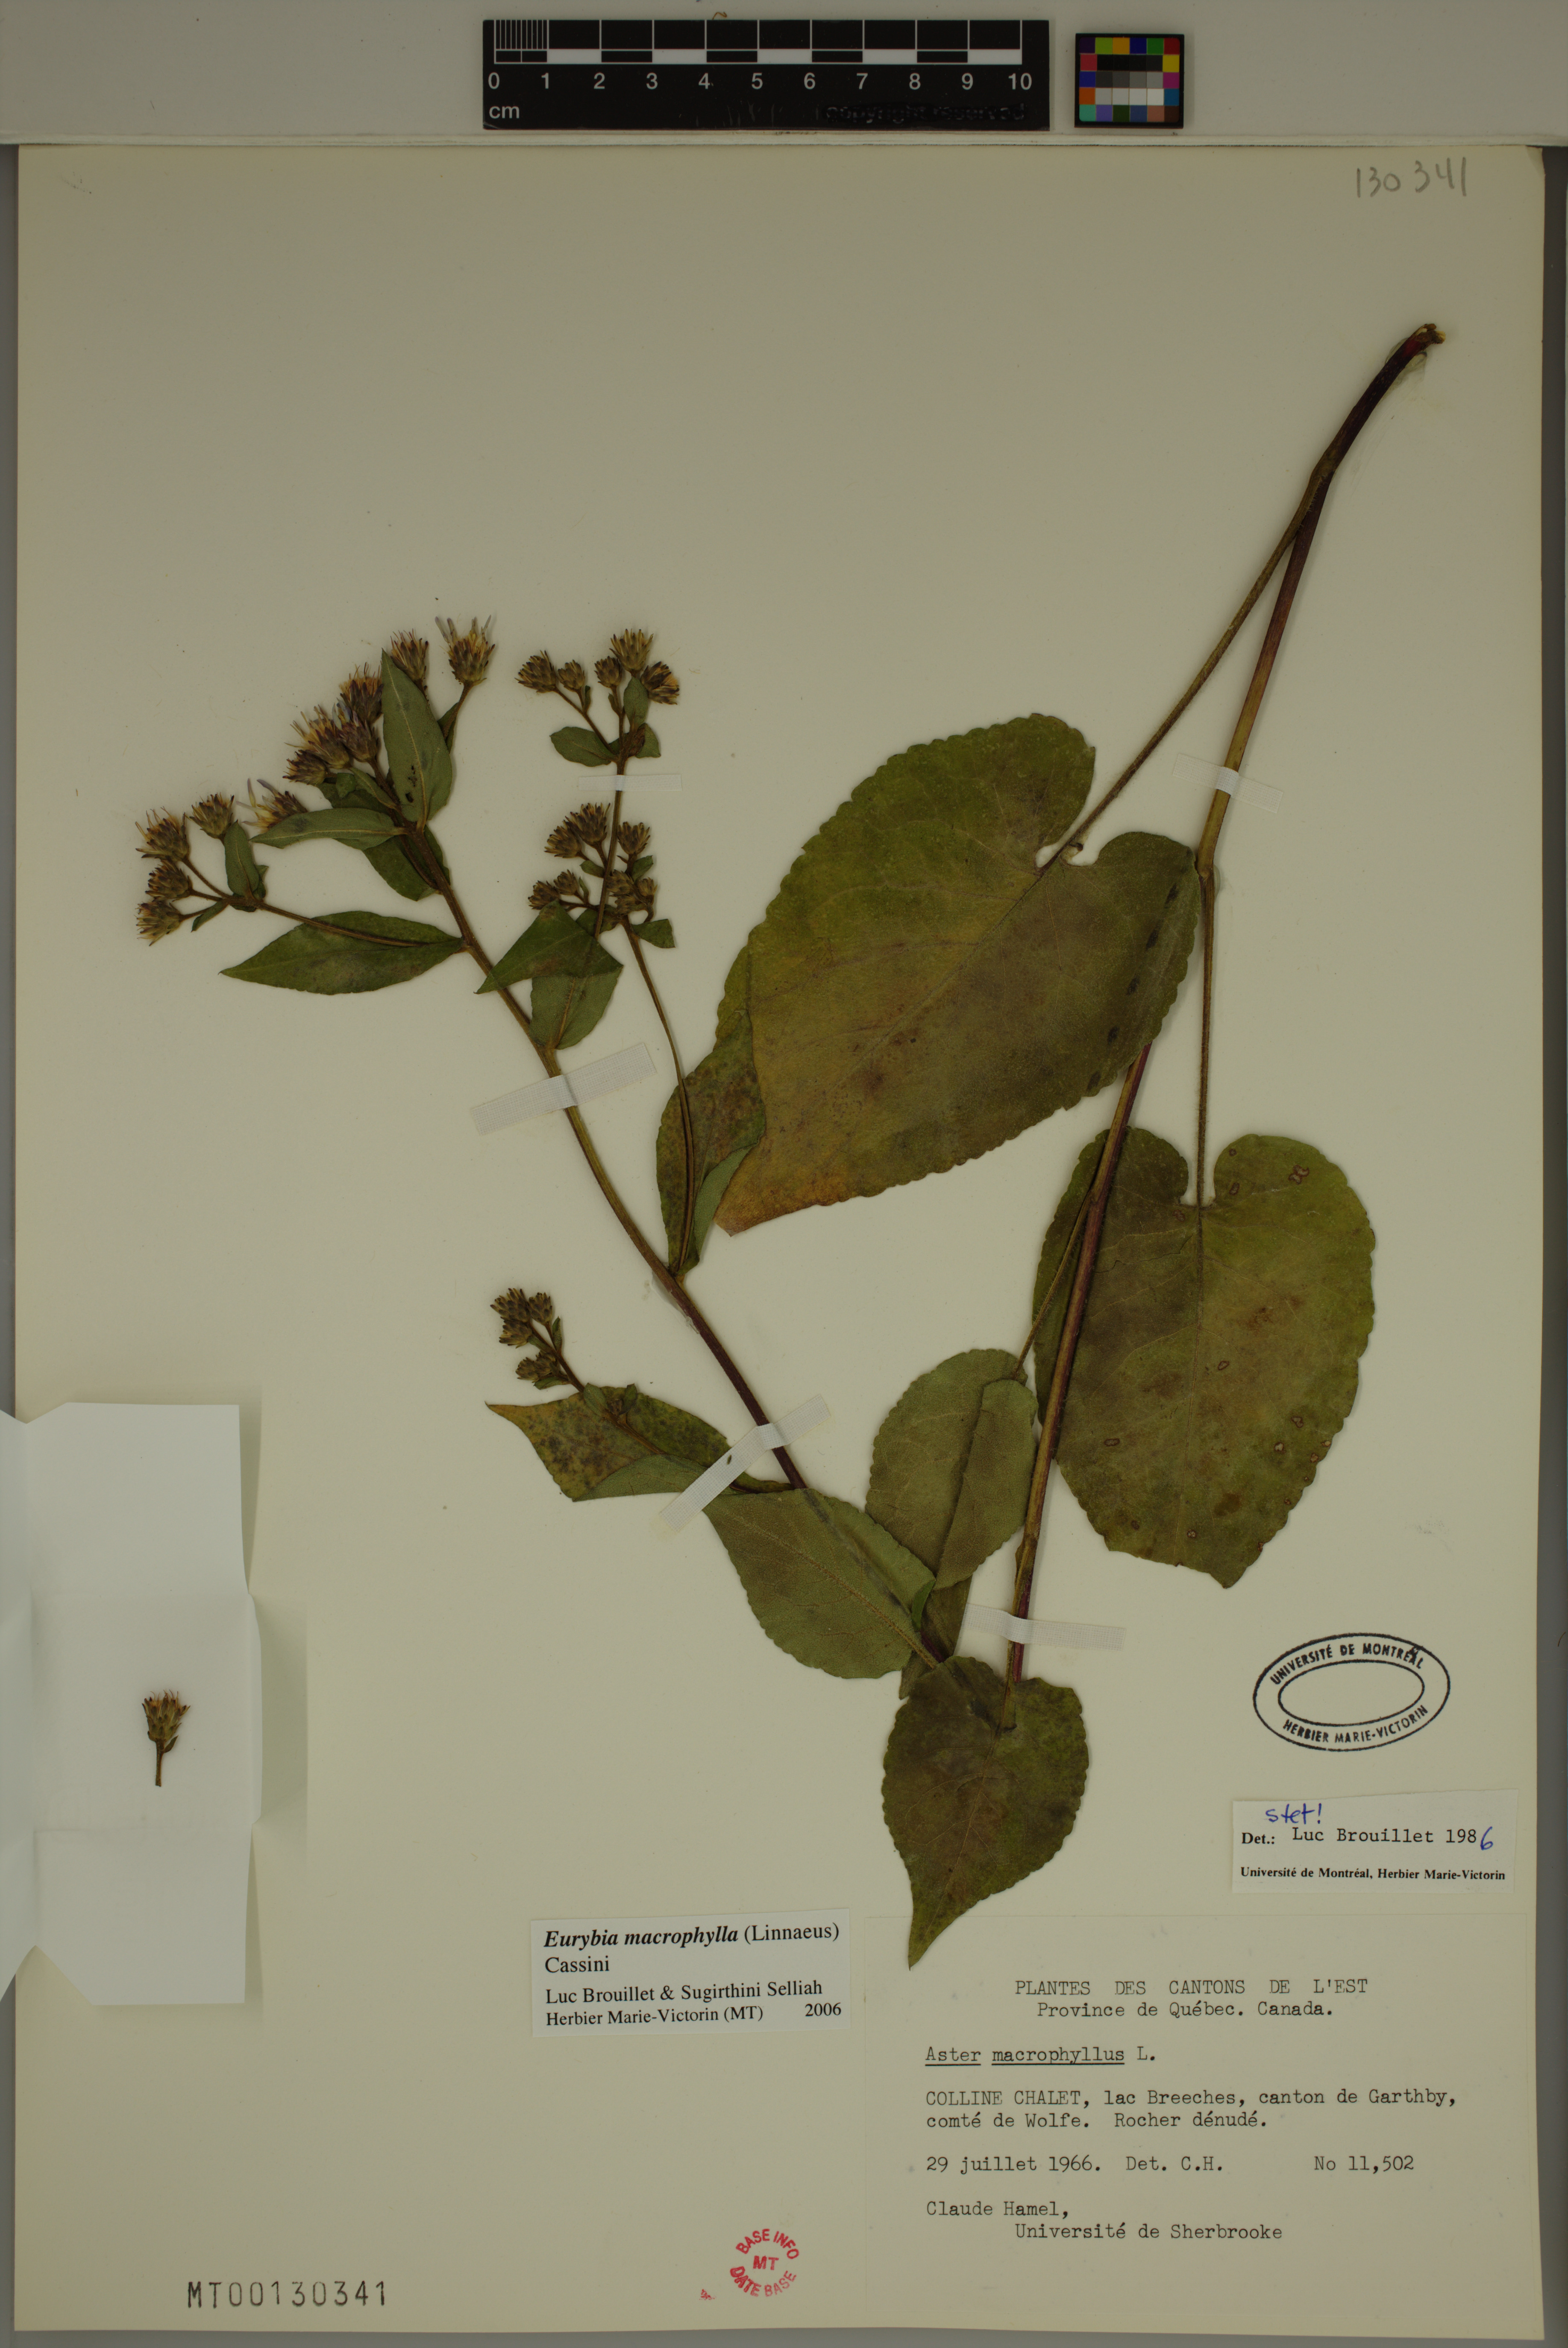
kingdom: Plantae
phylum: Tracheophyta
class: Magnoliopsida
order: Asterales
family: Asteraceae
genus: Eurybia
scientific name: Eurybia macrophylla
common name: Big-leaved aster
